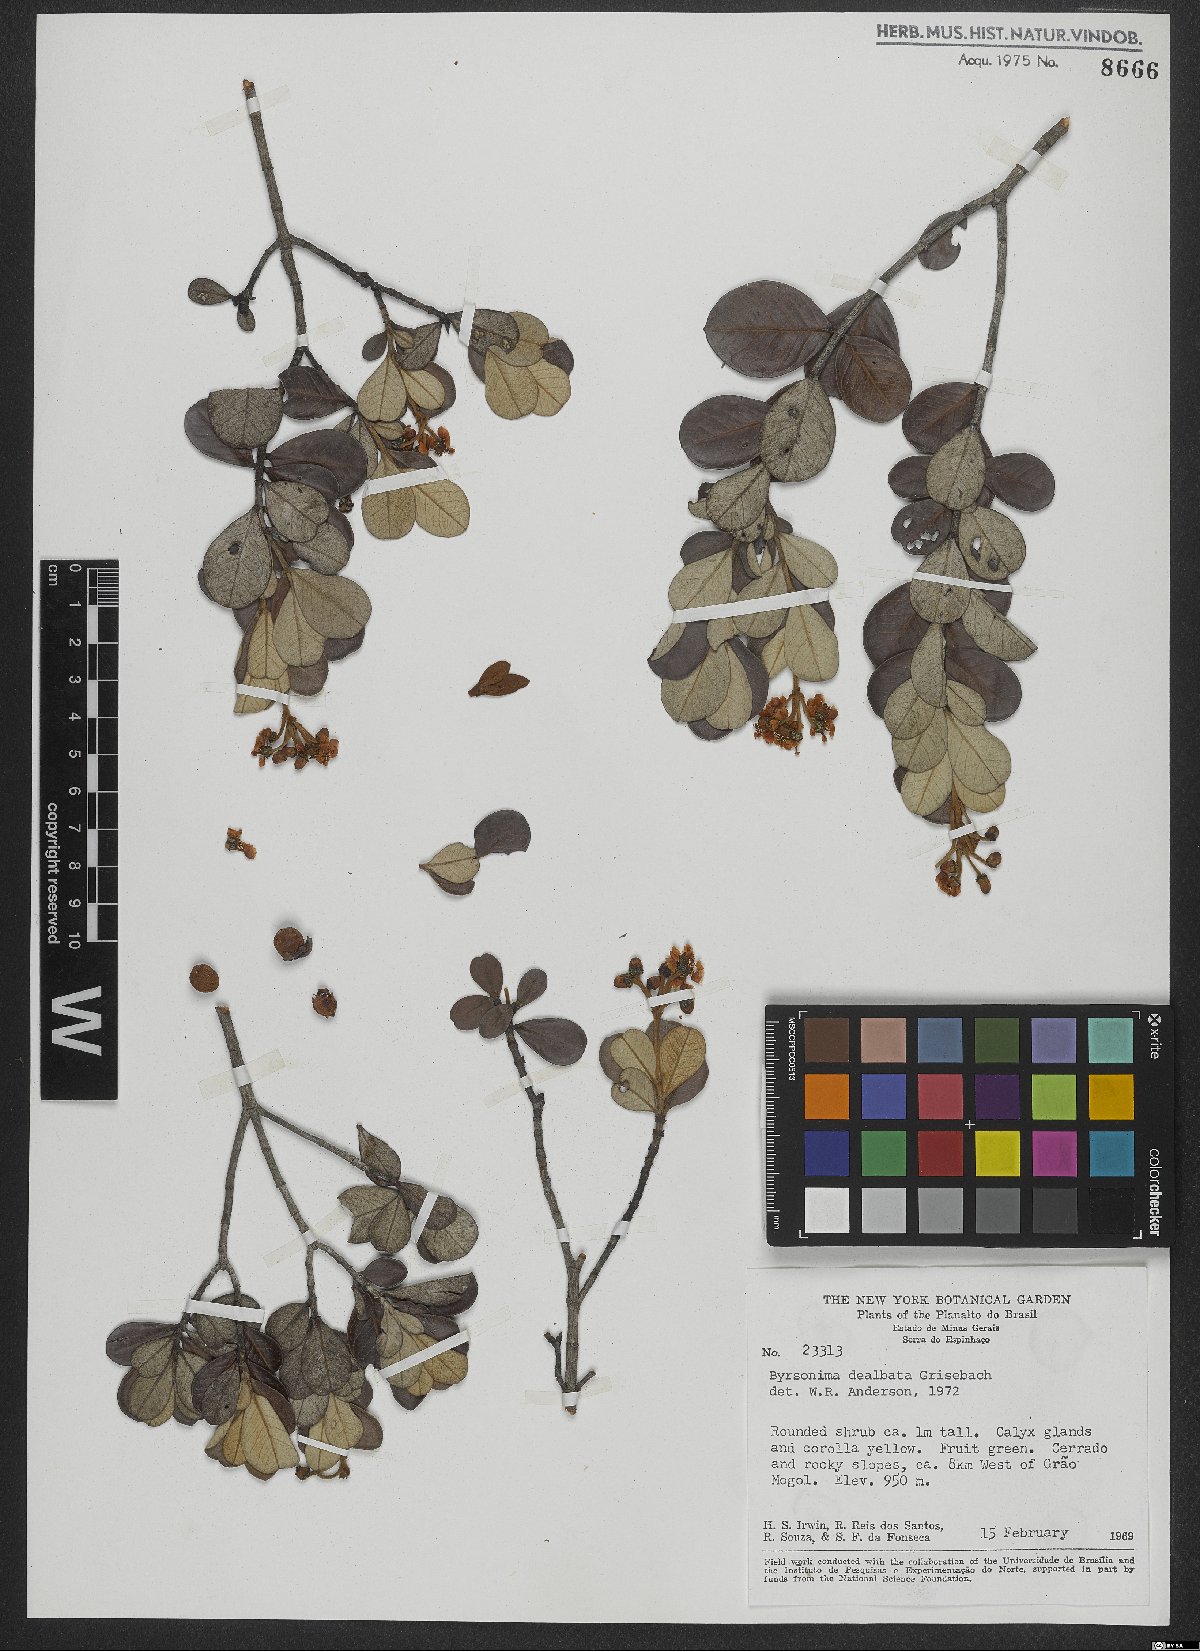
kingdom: Plantae
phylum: Tracheophyta
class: Magnoliopsida
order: Malpighiales
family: Malpighiaceae
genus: Byrsonima
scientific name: Byrsonima dealbata
